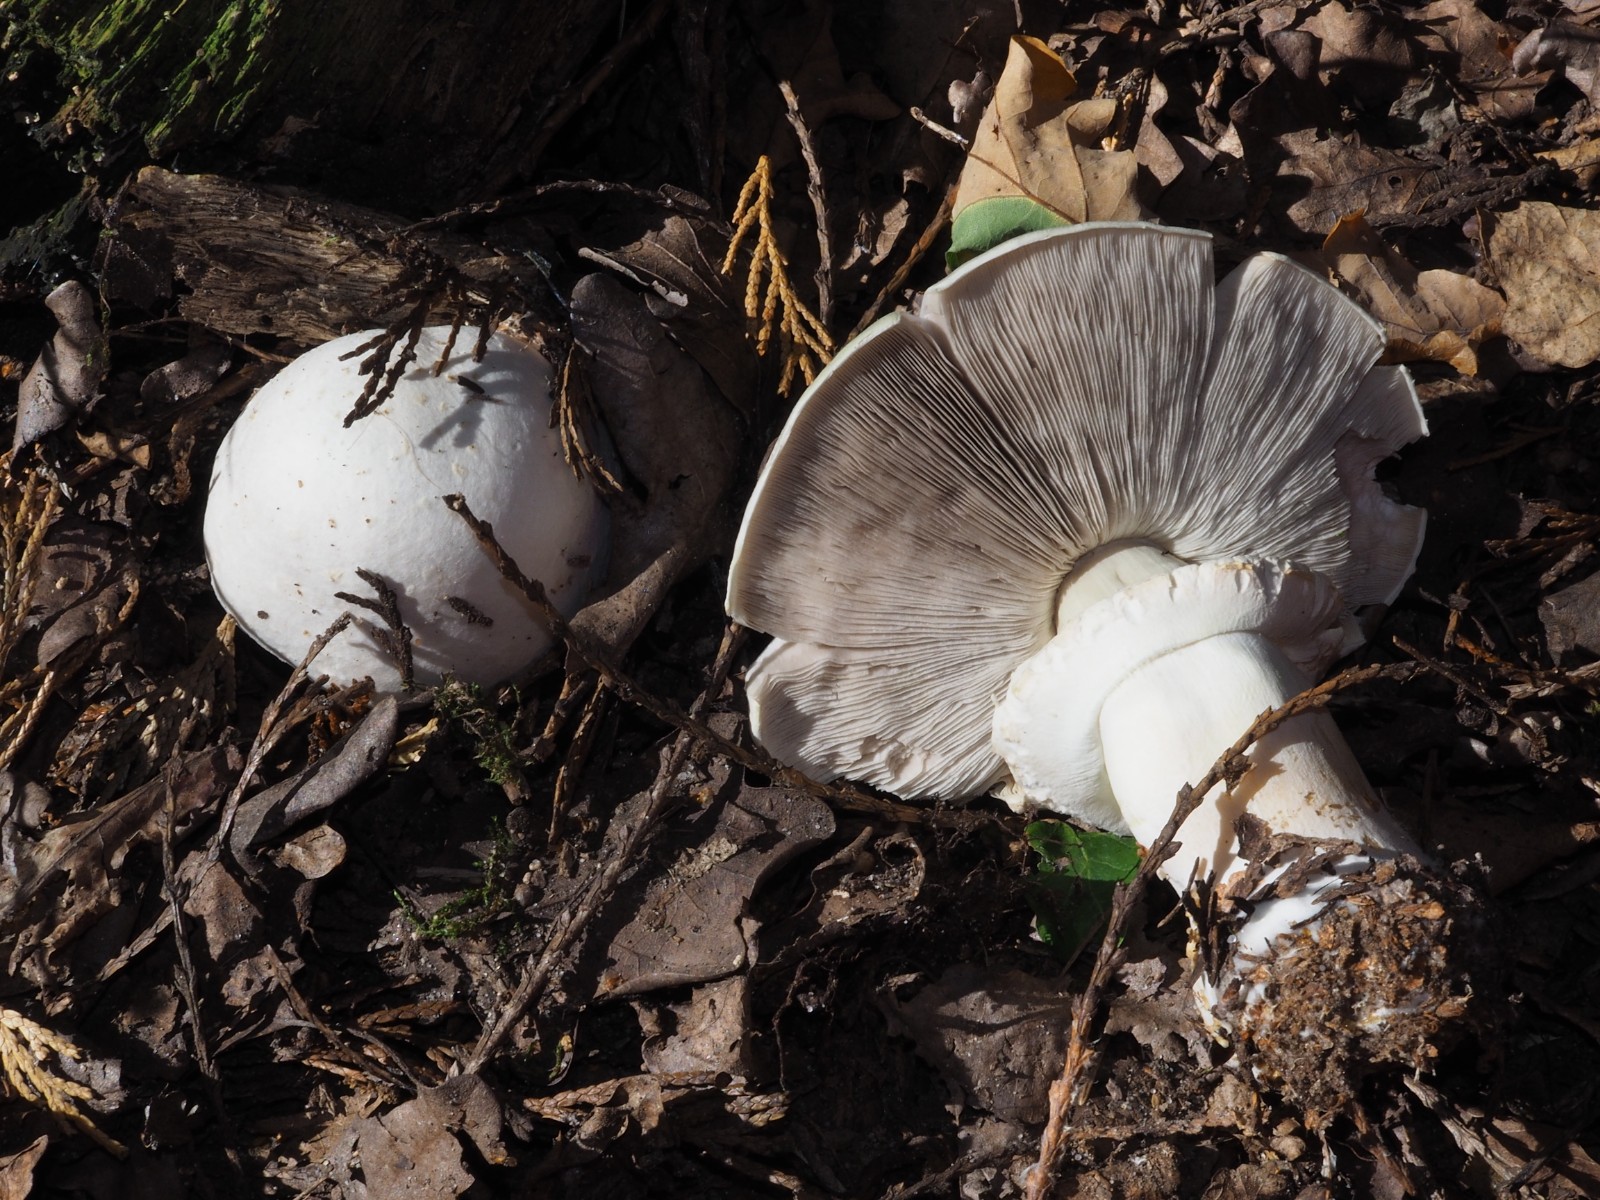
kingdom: Fungi
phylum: Basidiomycota
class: Agaricomycetes
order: Agaricales
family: Agaricaceae
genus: Agaricus
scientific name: Agaricus
